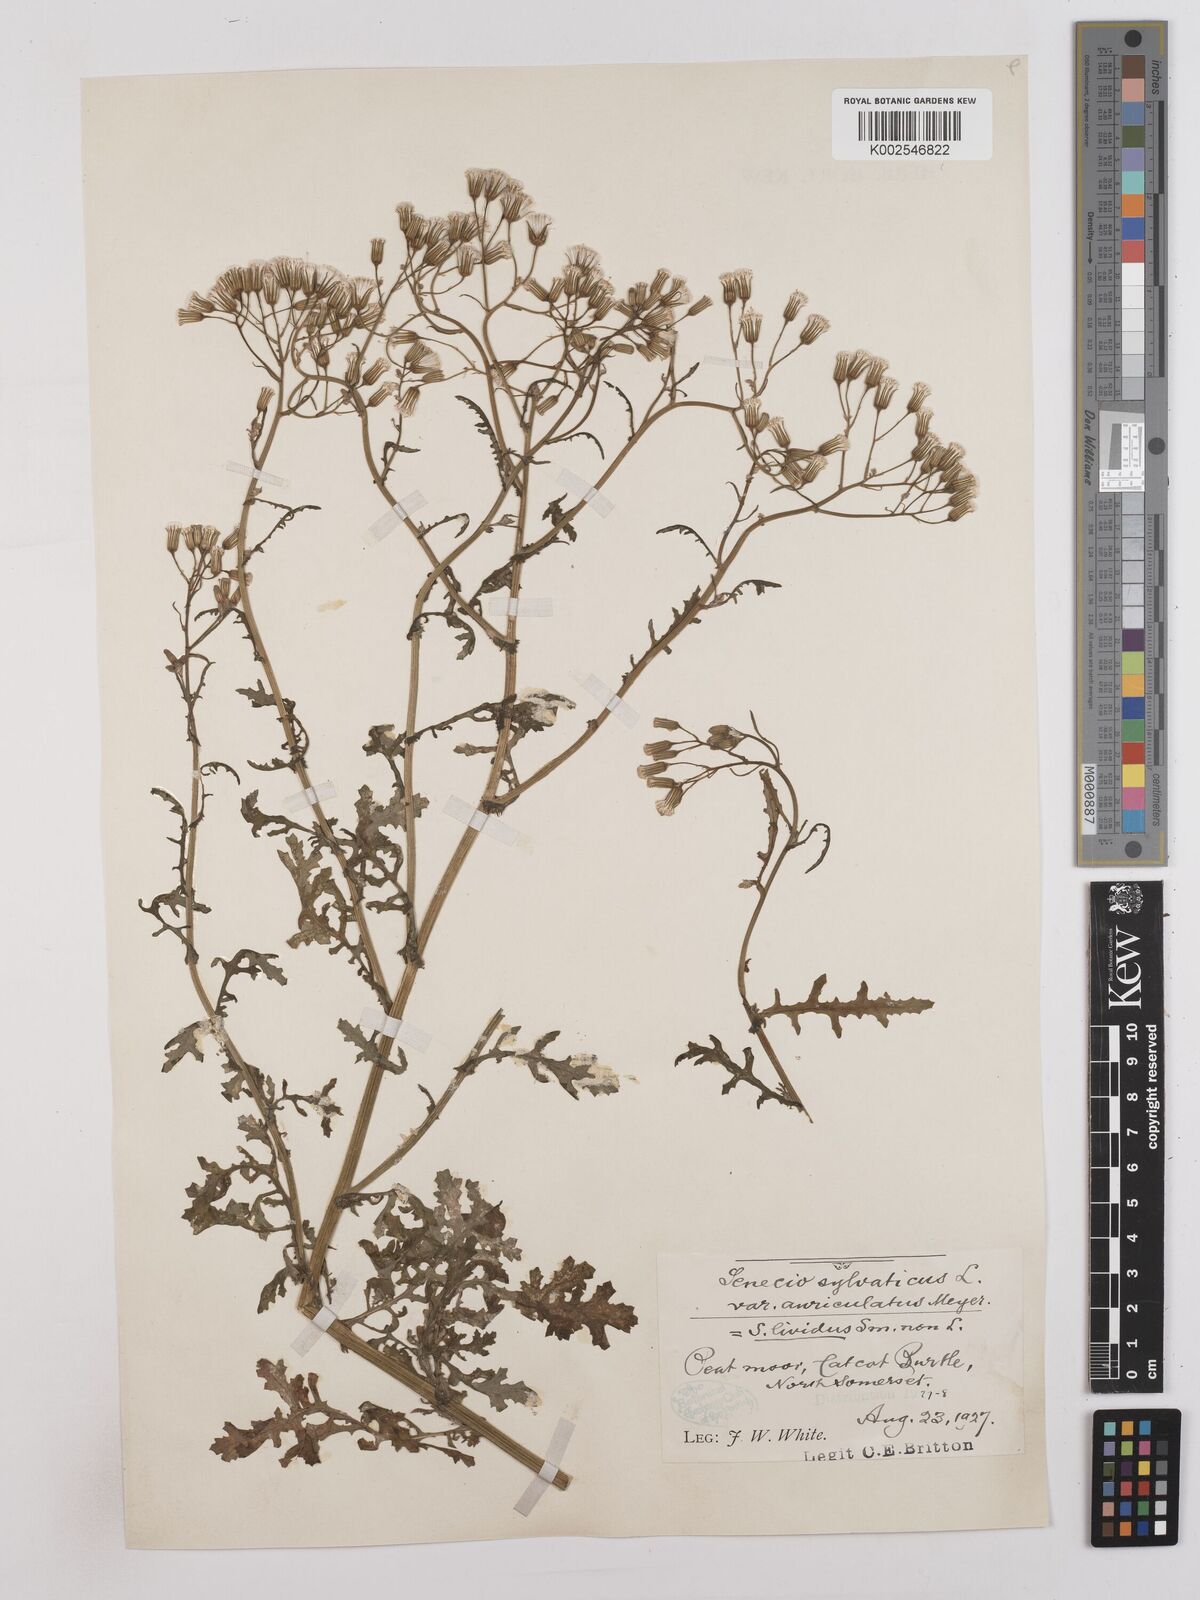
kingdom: Plantae
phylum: Tracheophyta
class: Magnoliopsida
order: Asterales
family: Asteraceae
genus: Senecio
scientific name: Senecio sylvaticus
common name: Woodland ragwort
